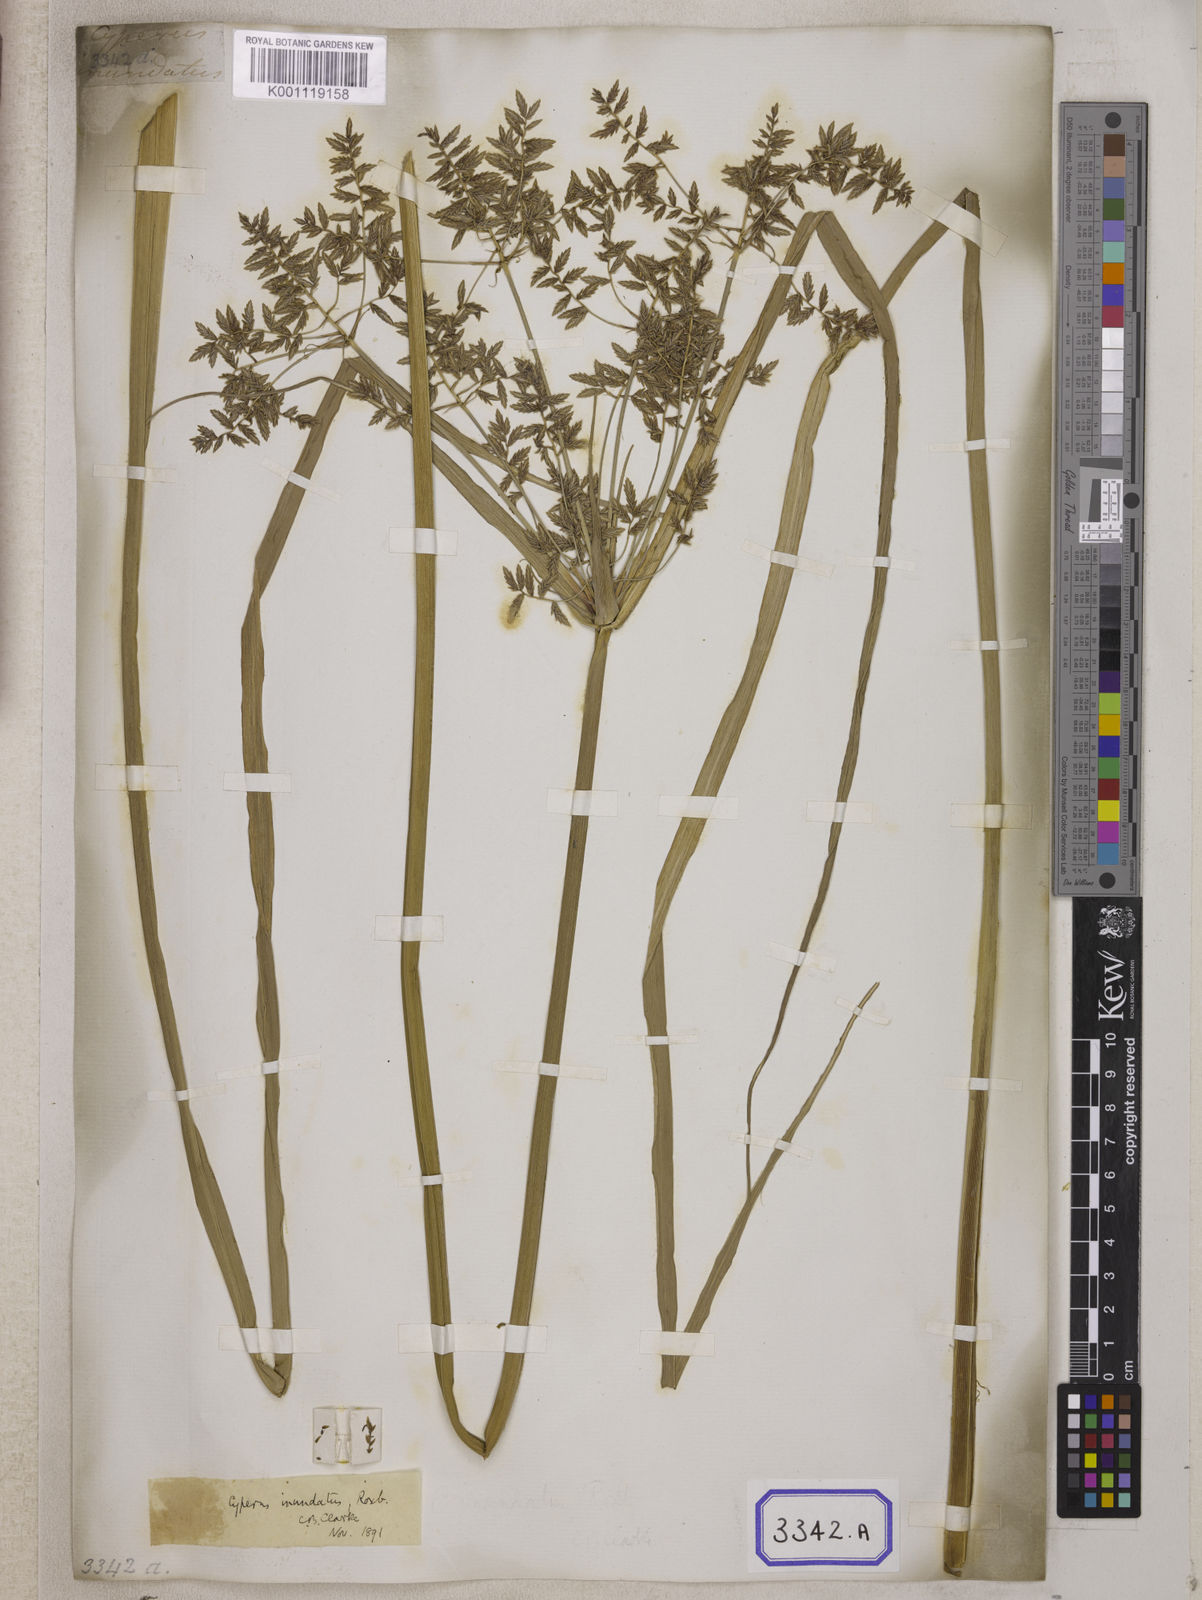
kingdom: Plantae
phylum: Tracheophyta
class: Liliopsida
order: Poales
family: Cyperaceae
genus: Cyperus
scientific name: Cyperus
